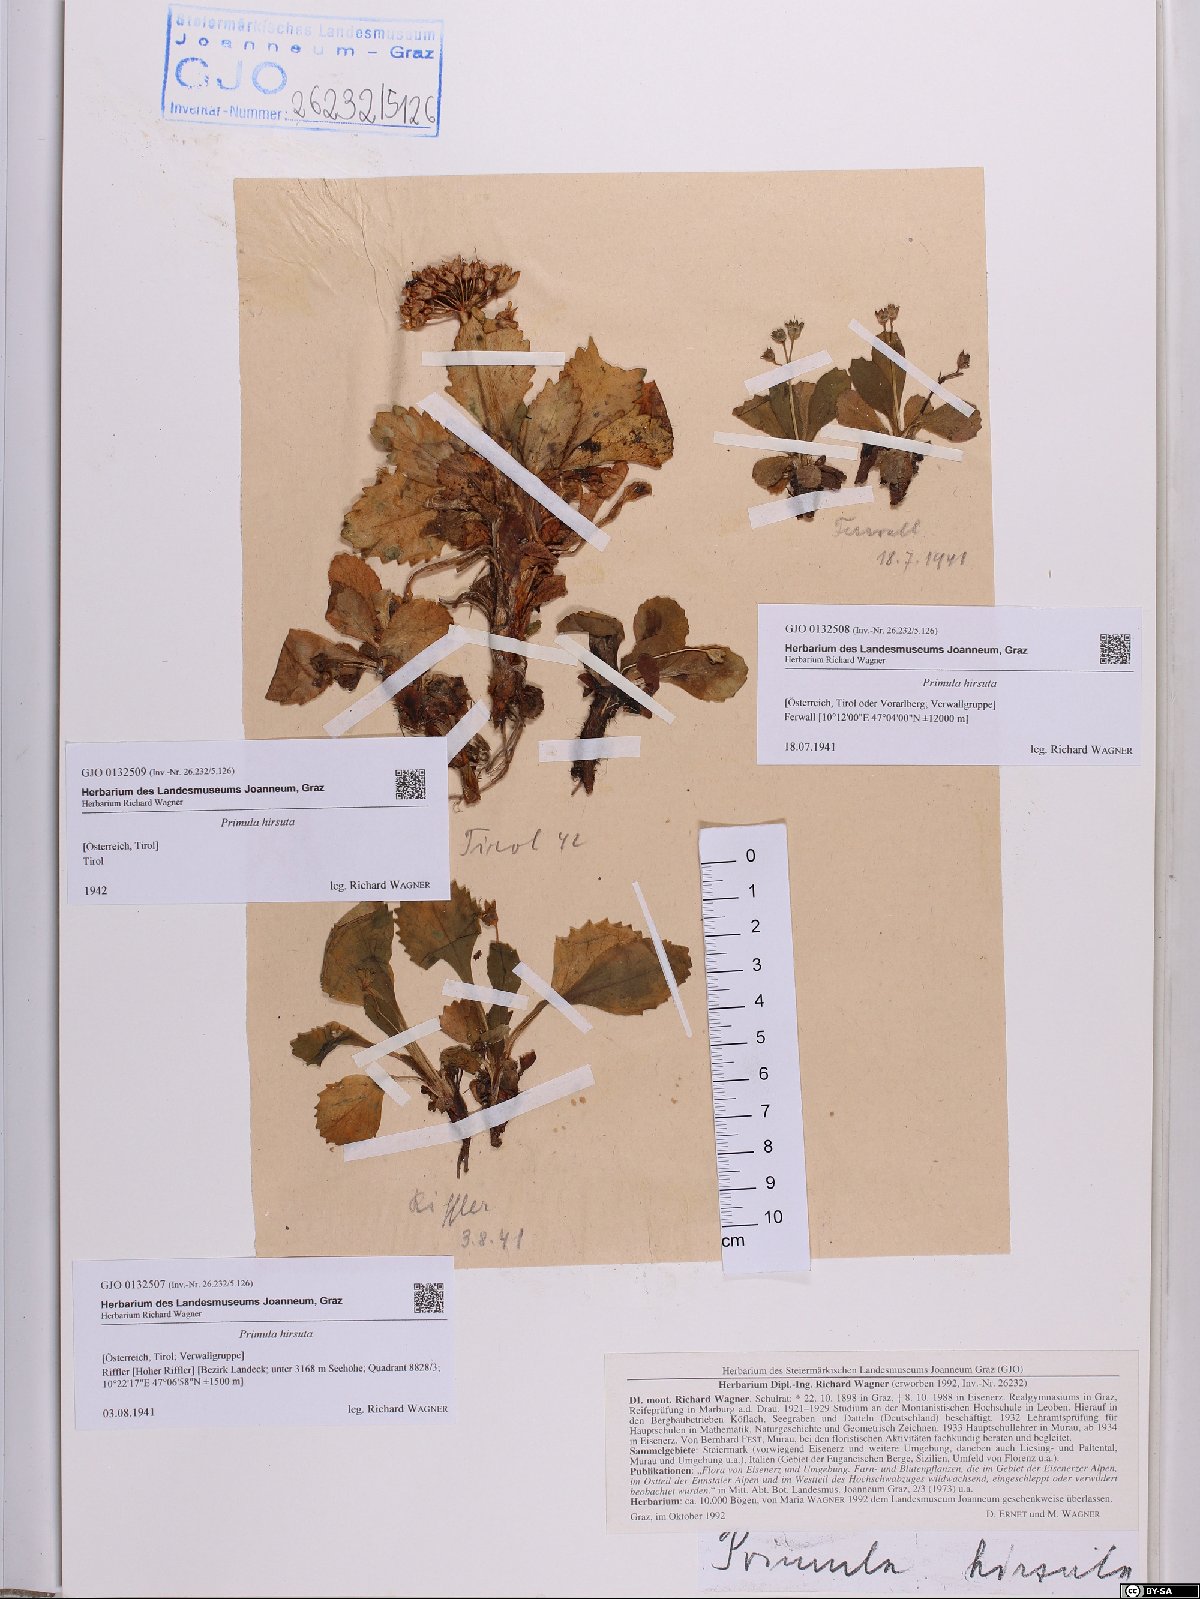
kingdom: Plantae
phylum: Tracheophyta
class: Magnoliopsida
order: Ericales
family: Primulaceae
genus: Primula
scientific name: Primula hirsuta
